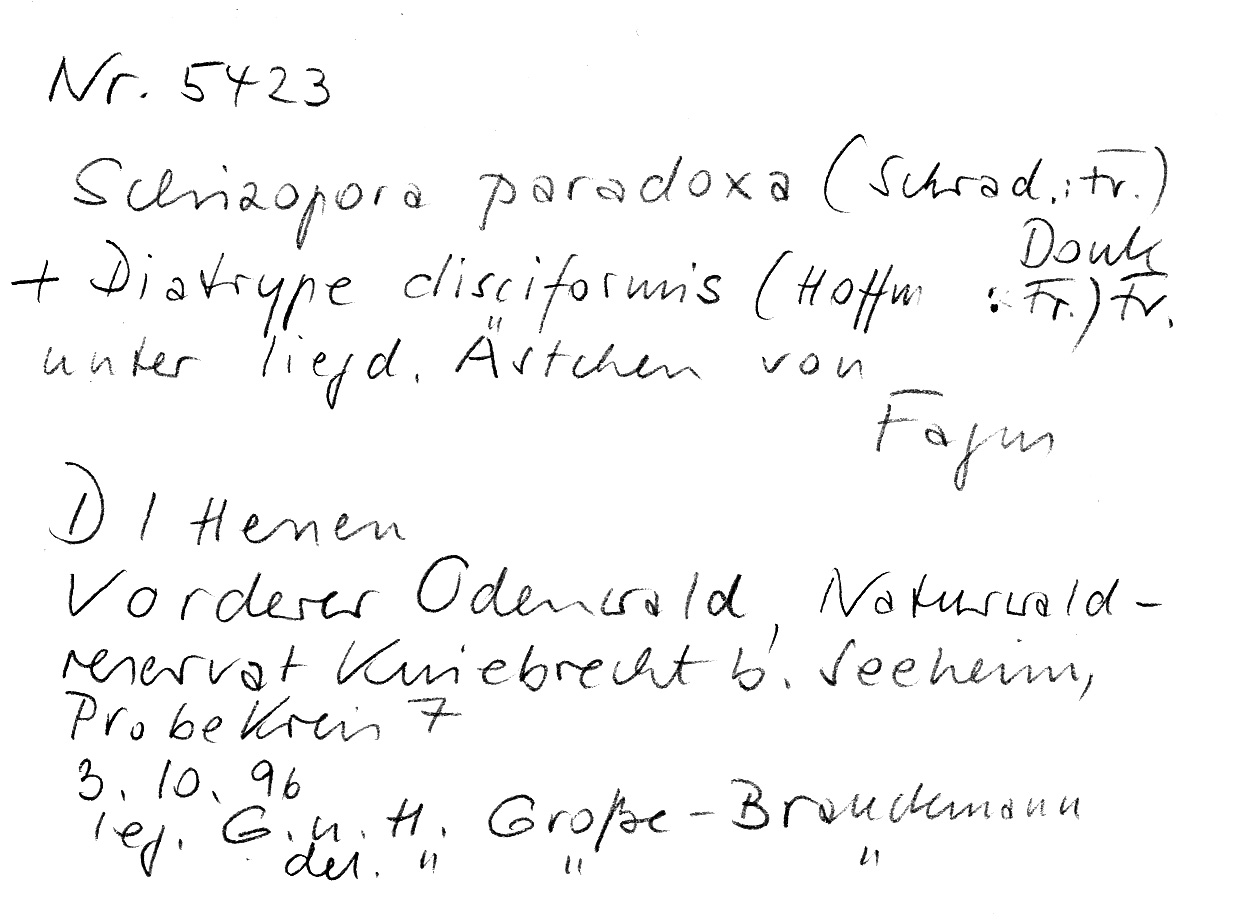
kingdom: Fungi
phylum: Basidiomycota
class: Agaricomycetes
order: Hymenochaetales
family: Schizoporaceae
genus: Schizopora
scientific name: Schizopora paradoxa
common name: Split porecrust
